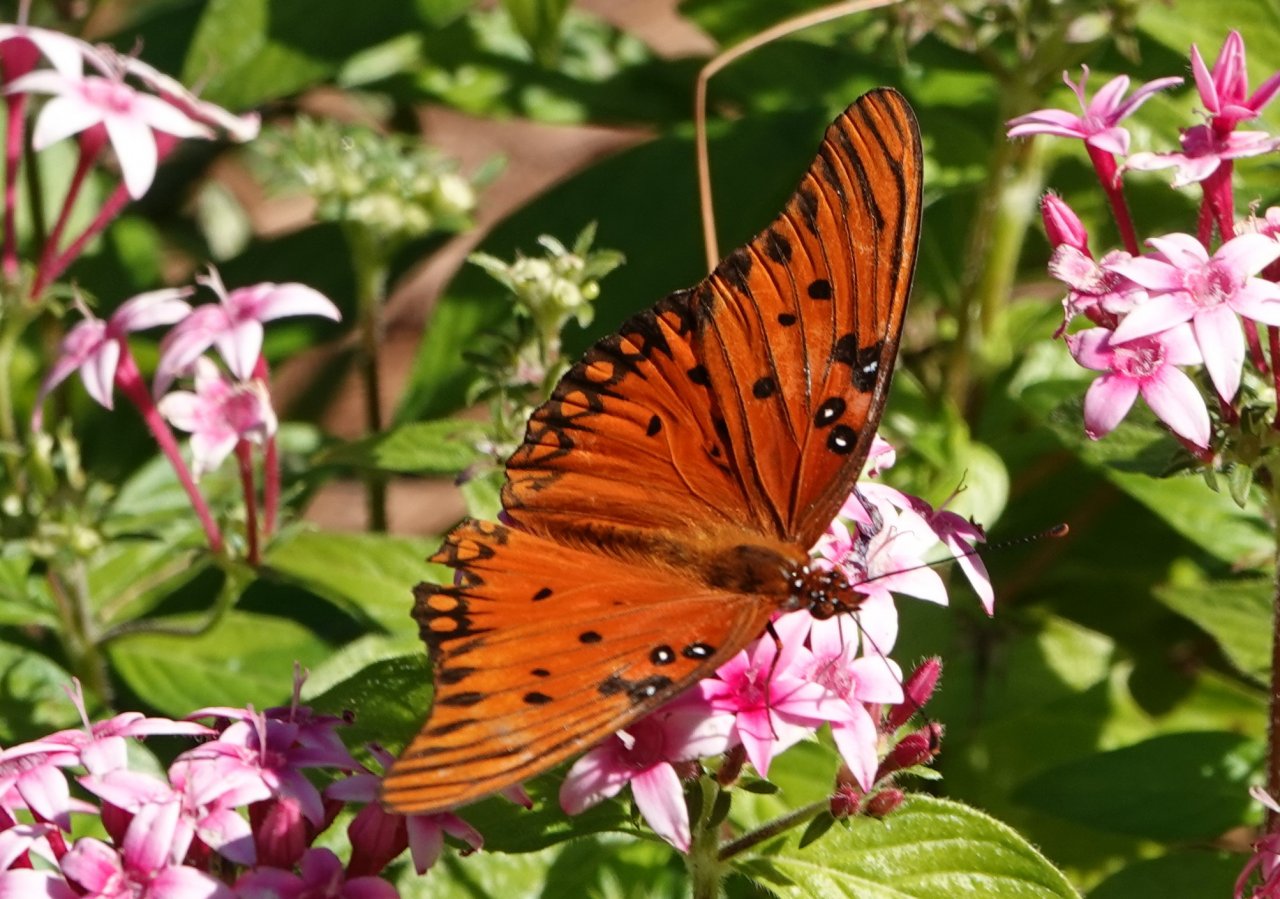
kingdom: Animalia
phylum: Arthropoda
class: Insecta
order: Lepidoptera
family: Nymphalidae
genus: Dione
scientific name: Dione vanillae
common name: Gulf Fritillary
